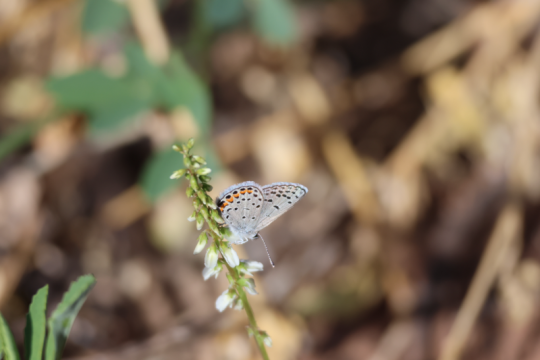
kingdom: Animalia
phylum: Arthropoda
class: Insecta
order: Lepidoptera
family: Lycaenidae
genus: Plebejus
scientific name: Plebejus acmon
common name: Acmon Blue
